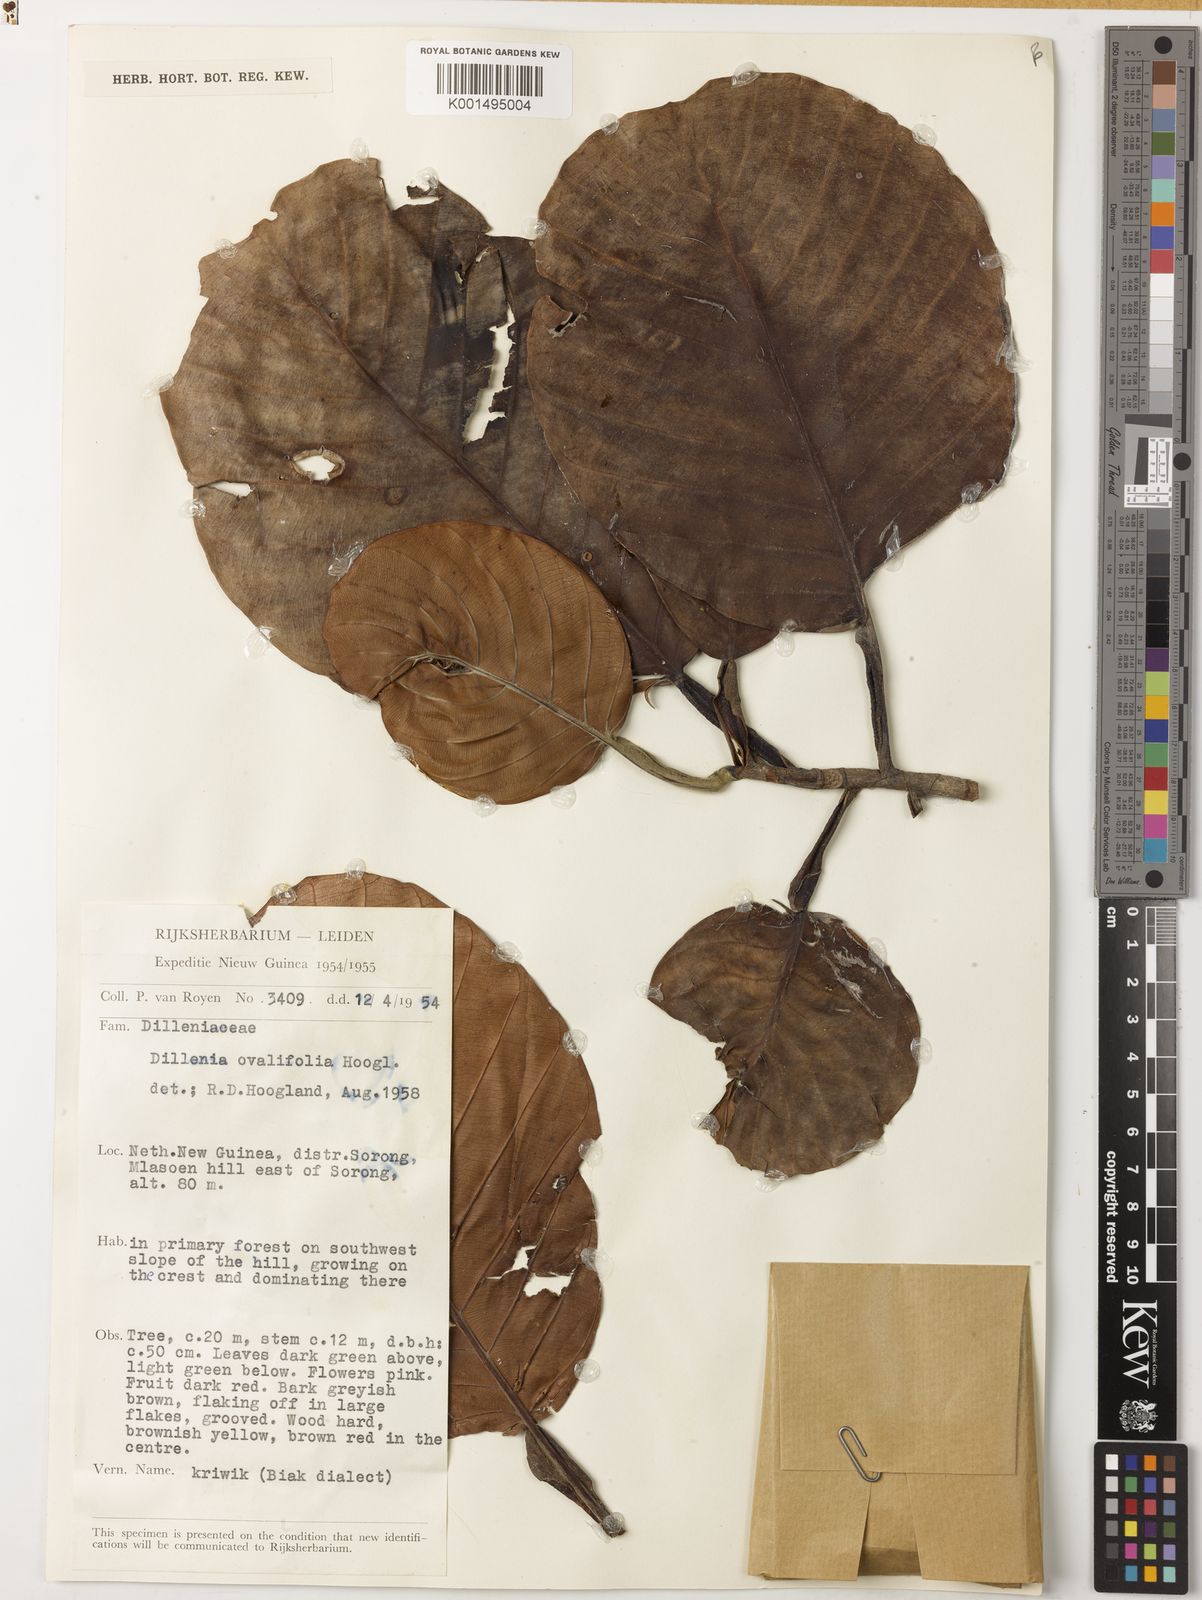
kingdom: Plantae
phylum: Tracheophyta
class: Magnoliopsida
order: Dilleniales
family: Dilleniaceae
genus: Dillenia
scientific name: Dillenia ovalifolia
